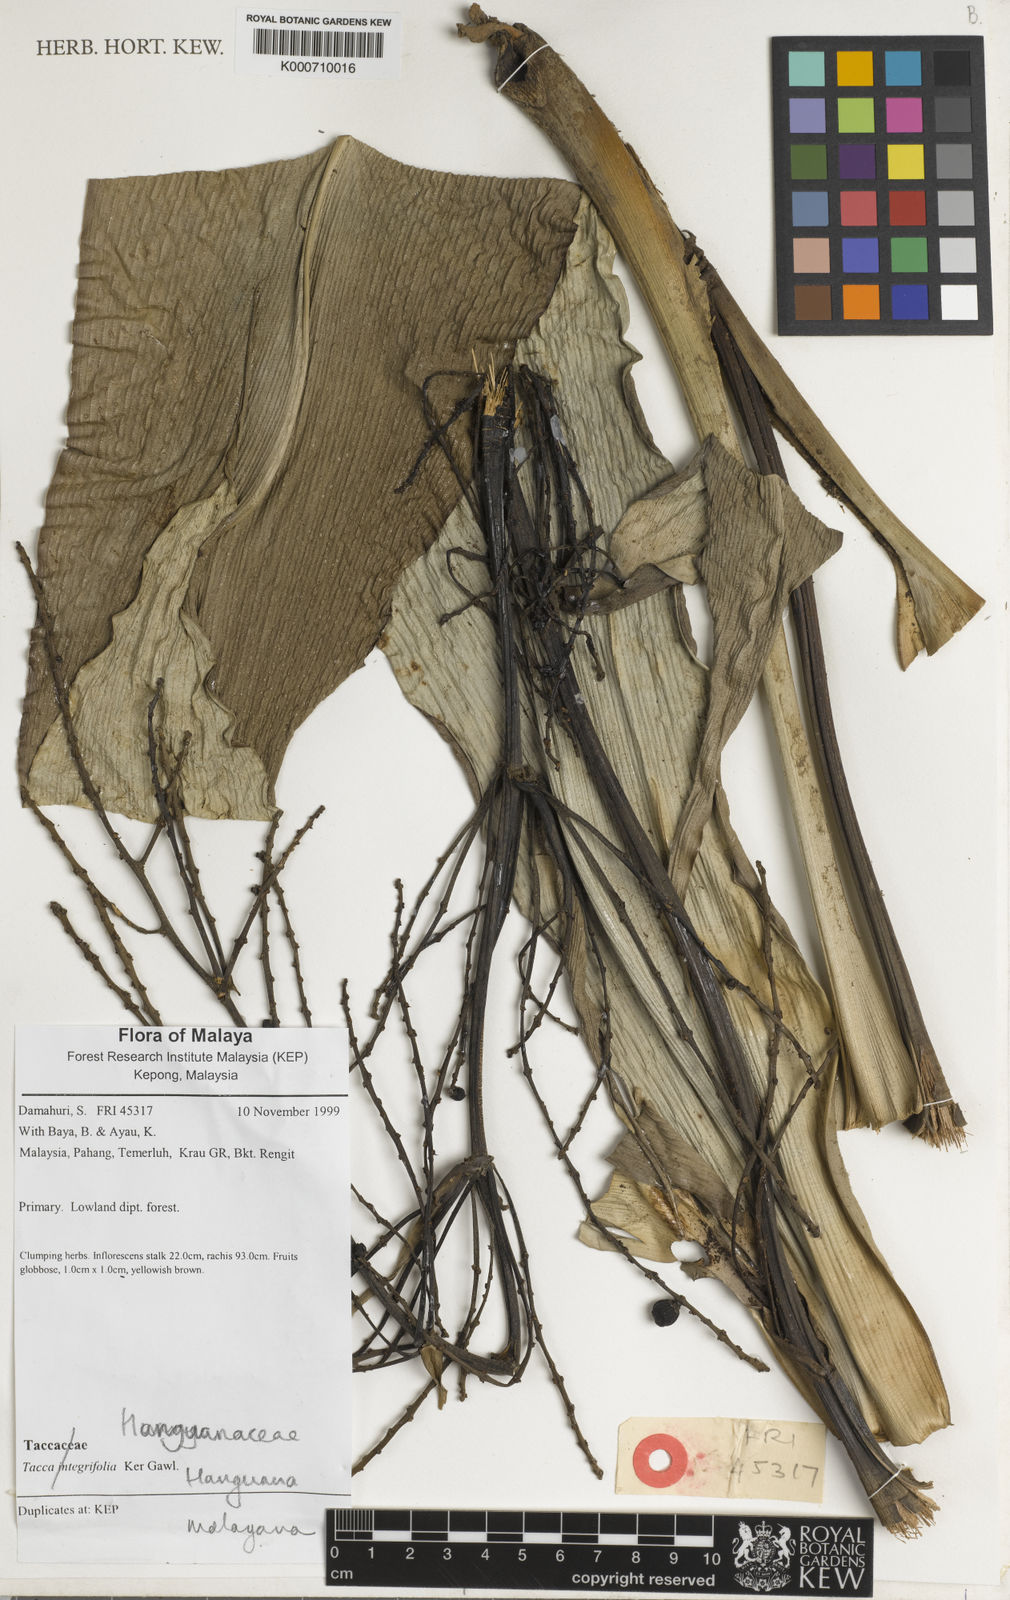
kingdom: Plantae
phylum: Tracheophyta
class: Liliopsida
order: Commelinales
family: Hanguanaceae
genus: Hanguana
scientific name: Hanguana malayana
